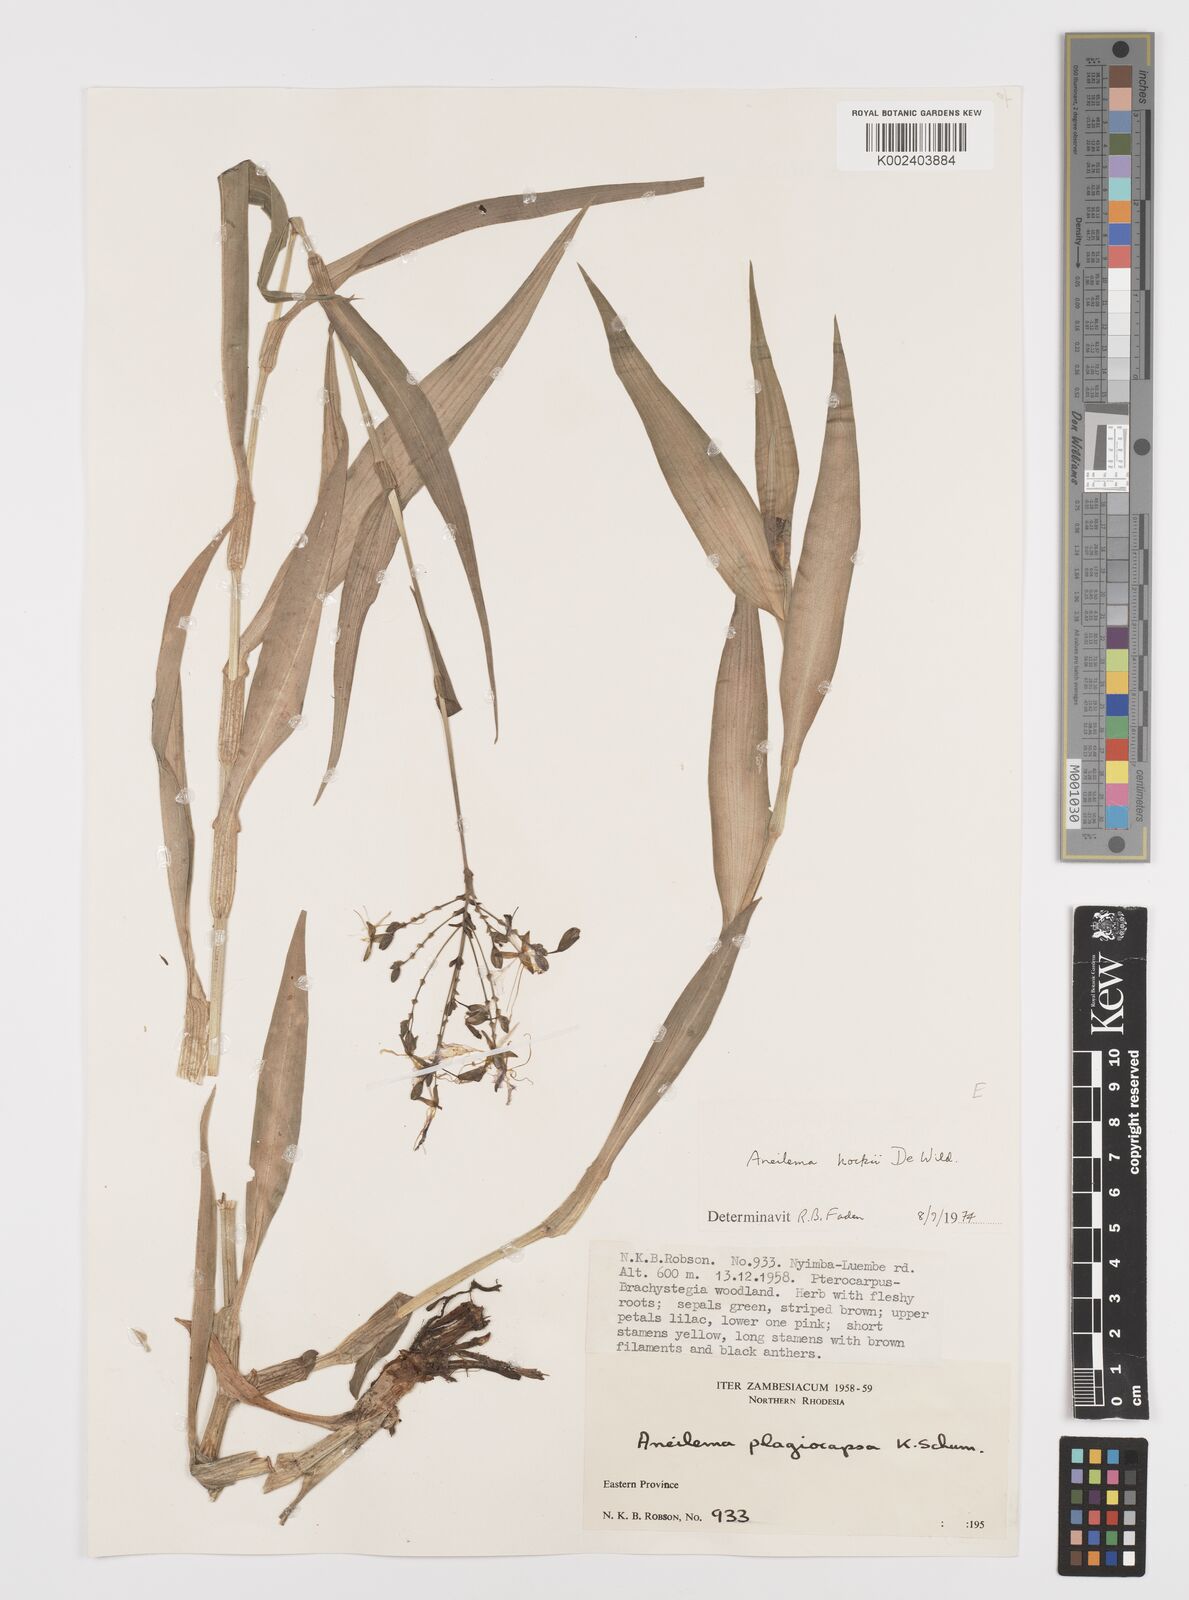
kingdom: Plantae
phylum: Tracheophyta
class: Liliopsida
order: Commelinales
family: Commelinaceae
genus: Aneilema
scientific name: Aneilema hockii
